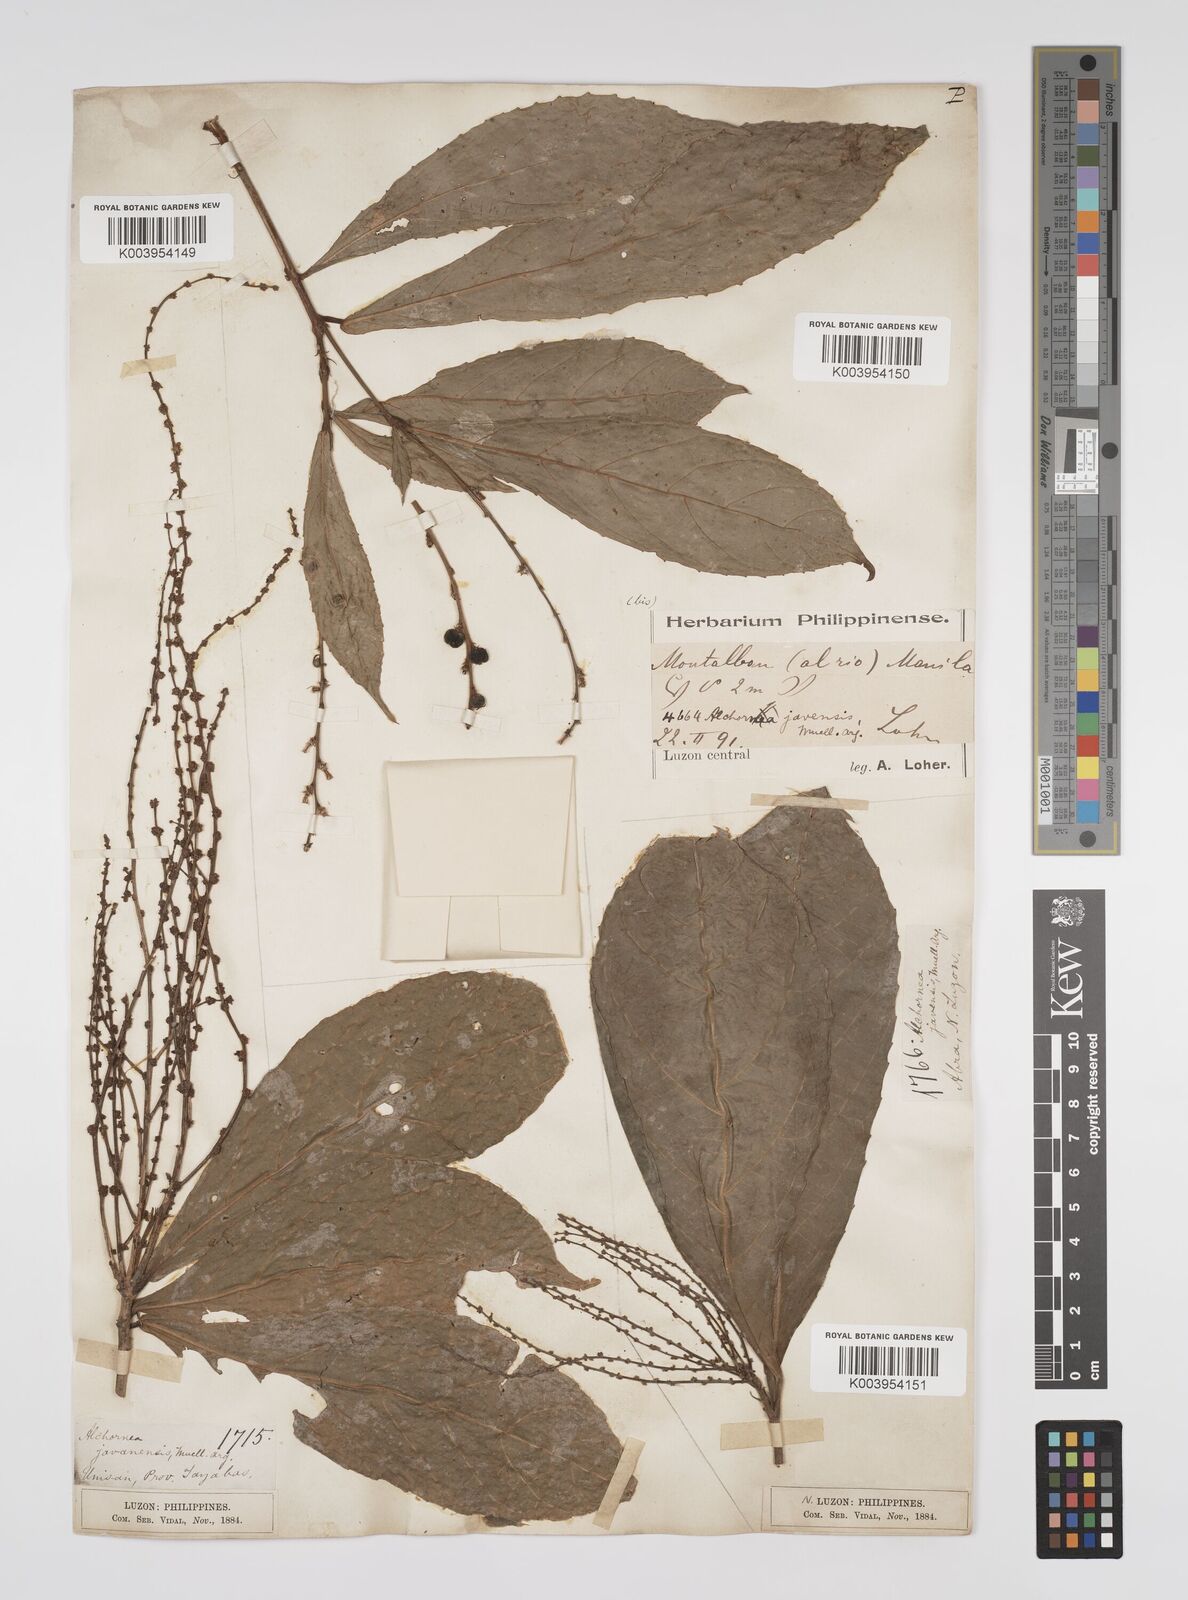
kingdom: Plantae
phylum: Tracheophyta
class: Magnoliopsida
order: Malpighiales
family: Euphorbiaceae
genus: Alchornea
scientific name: Alchornea rugosa
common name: Alchorntree
